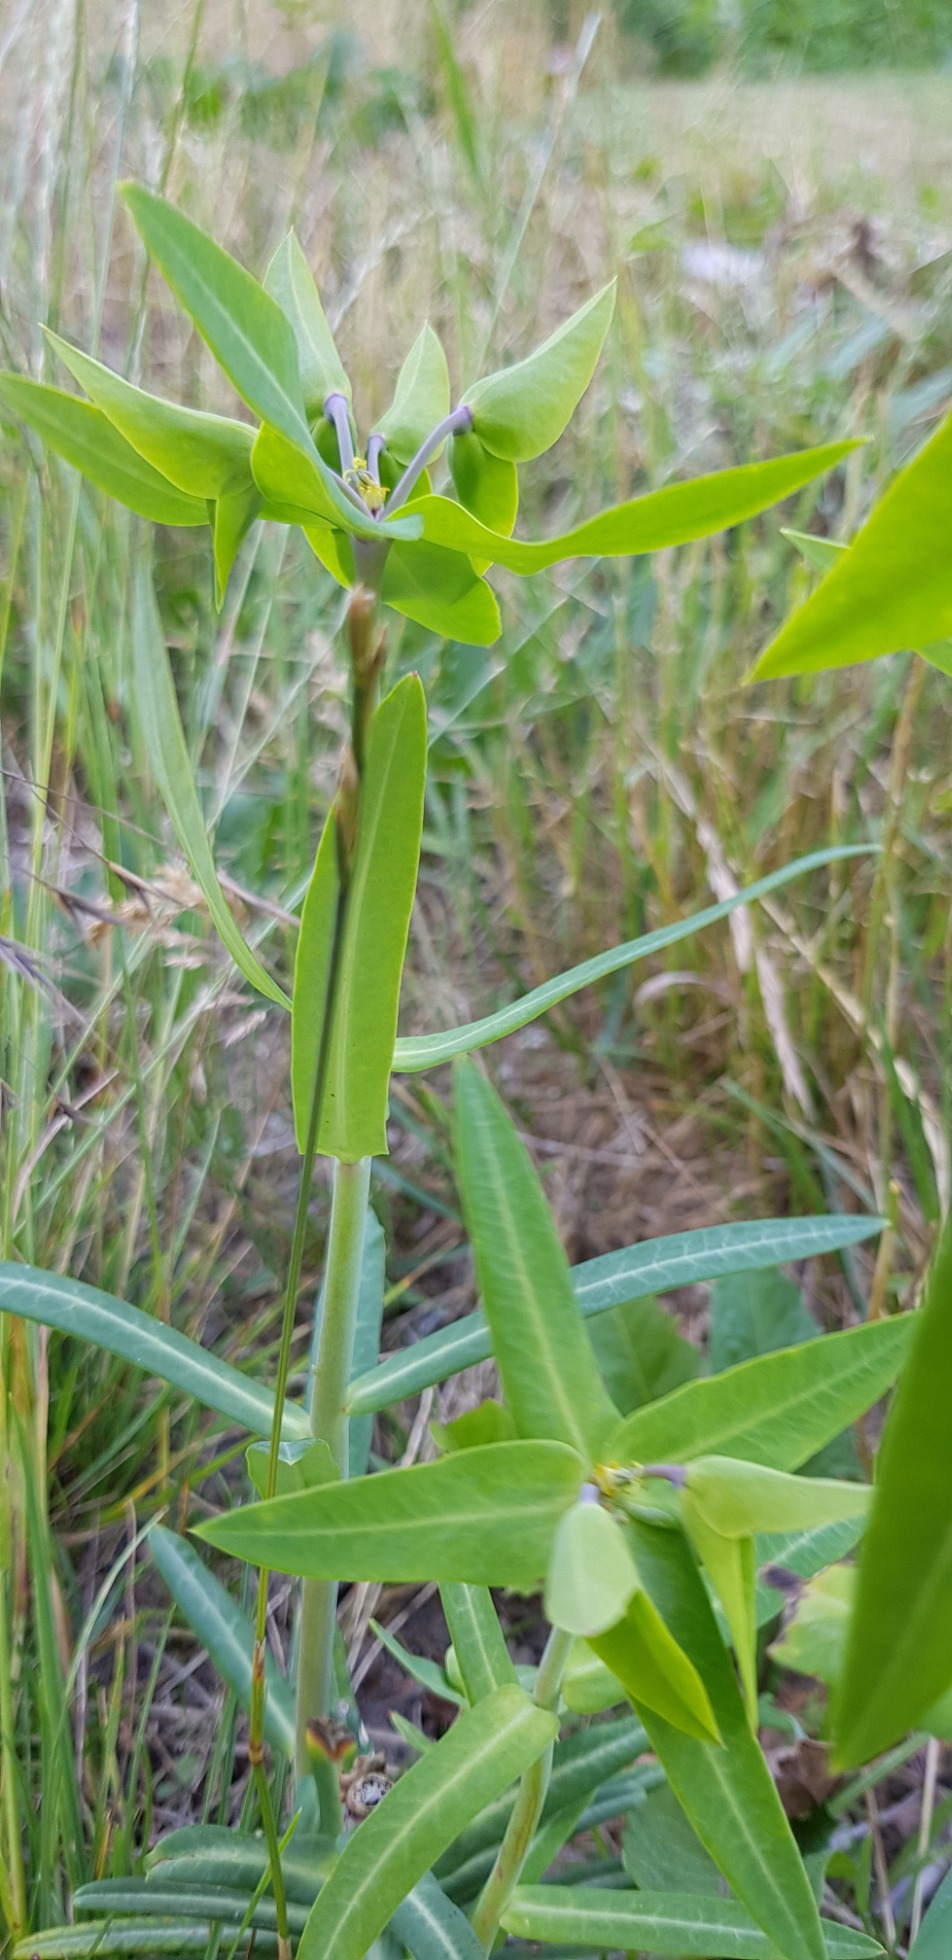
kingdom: Plantae
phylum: Tracheophyta
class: Magnoliopsida
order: Malpighiales
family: Euphorbiaceae
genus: Euphorbia
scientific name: Euphorbia lathyris
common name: Kors-vortemælk
